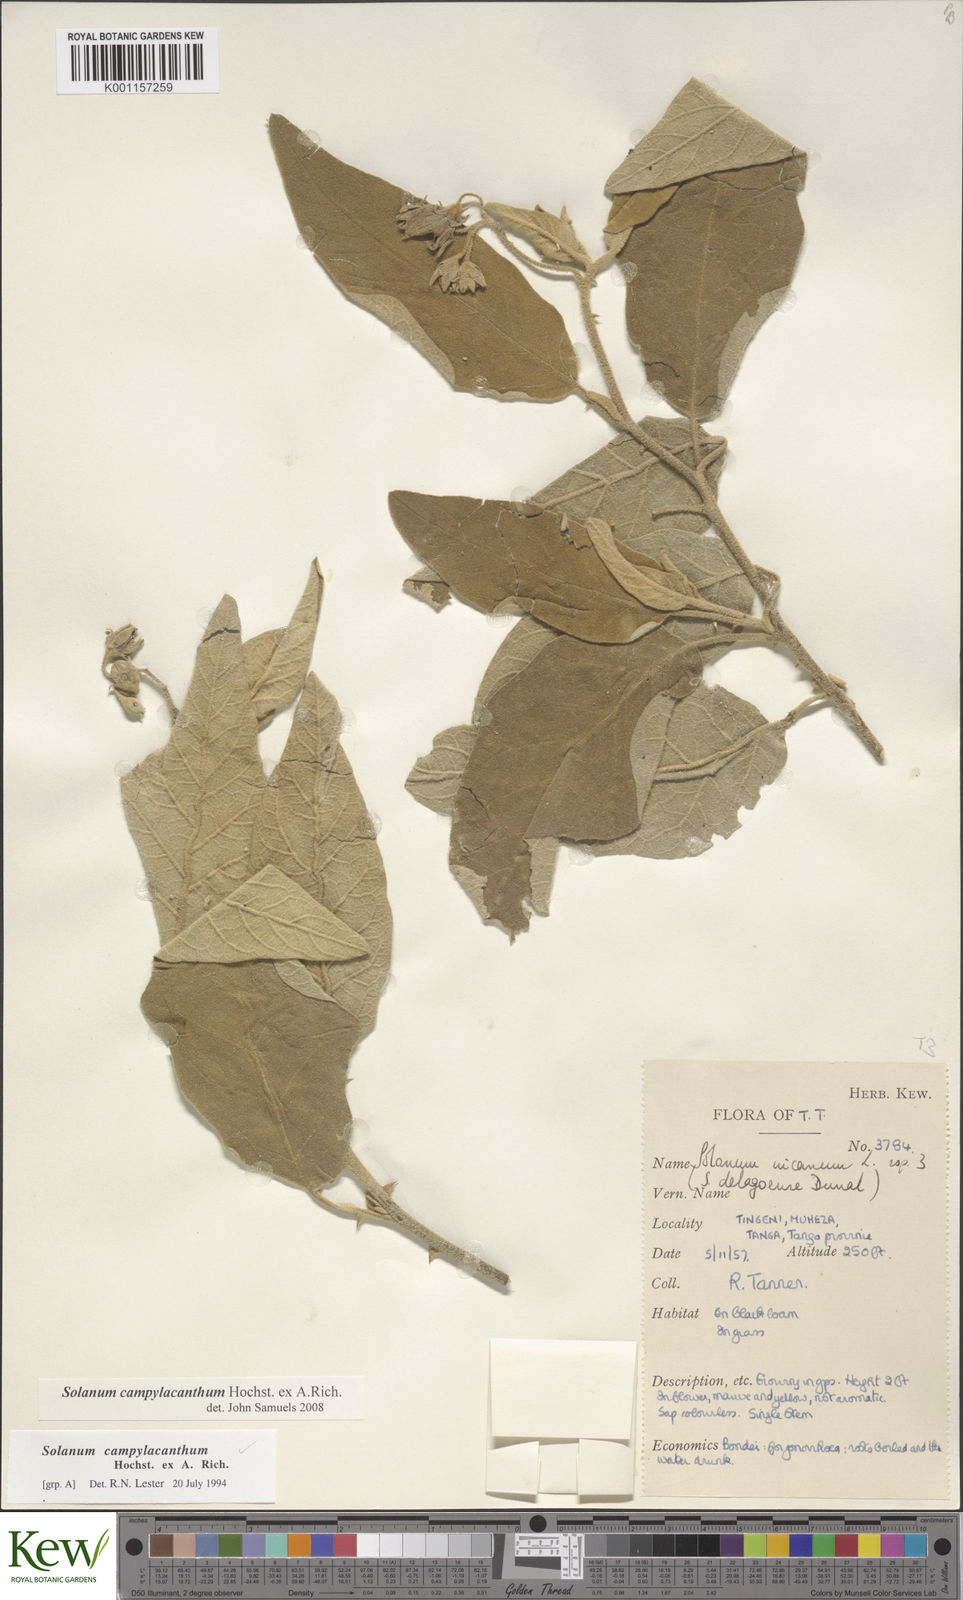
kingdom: Plantae
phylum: Tracheophyta
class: Magnoliopsida
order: Solanales
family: Solanaceae
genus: Solanum
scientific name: Solanum campylacanthum
